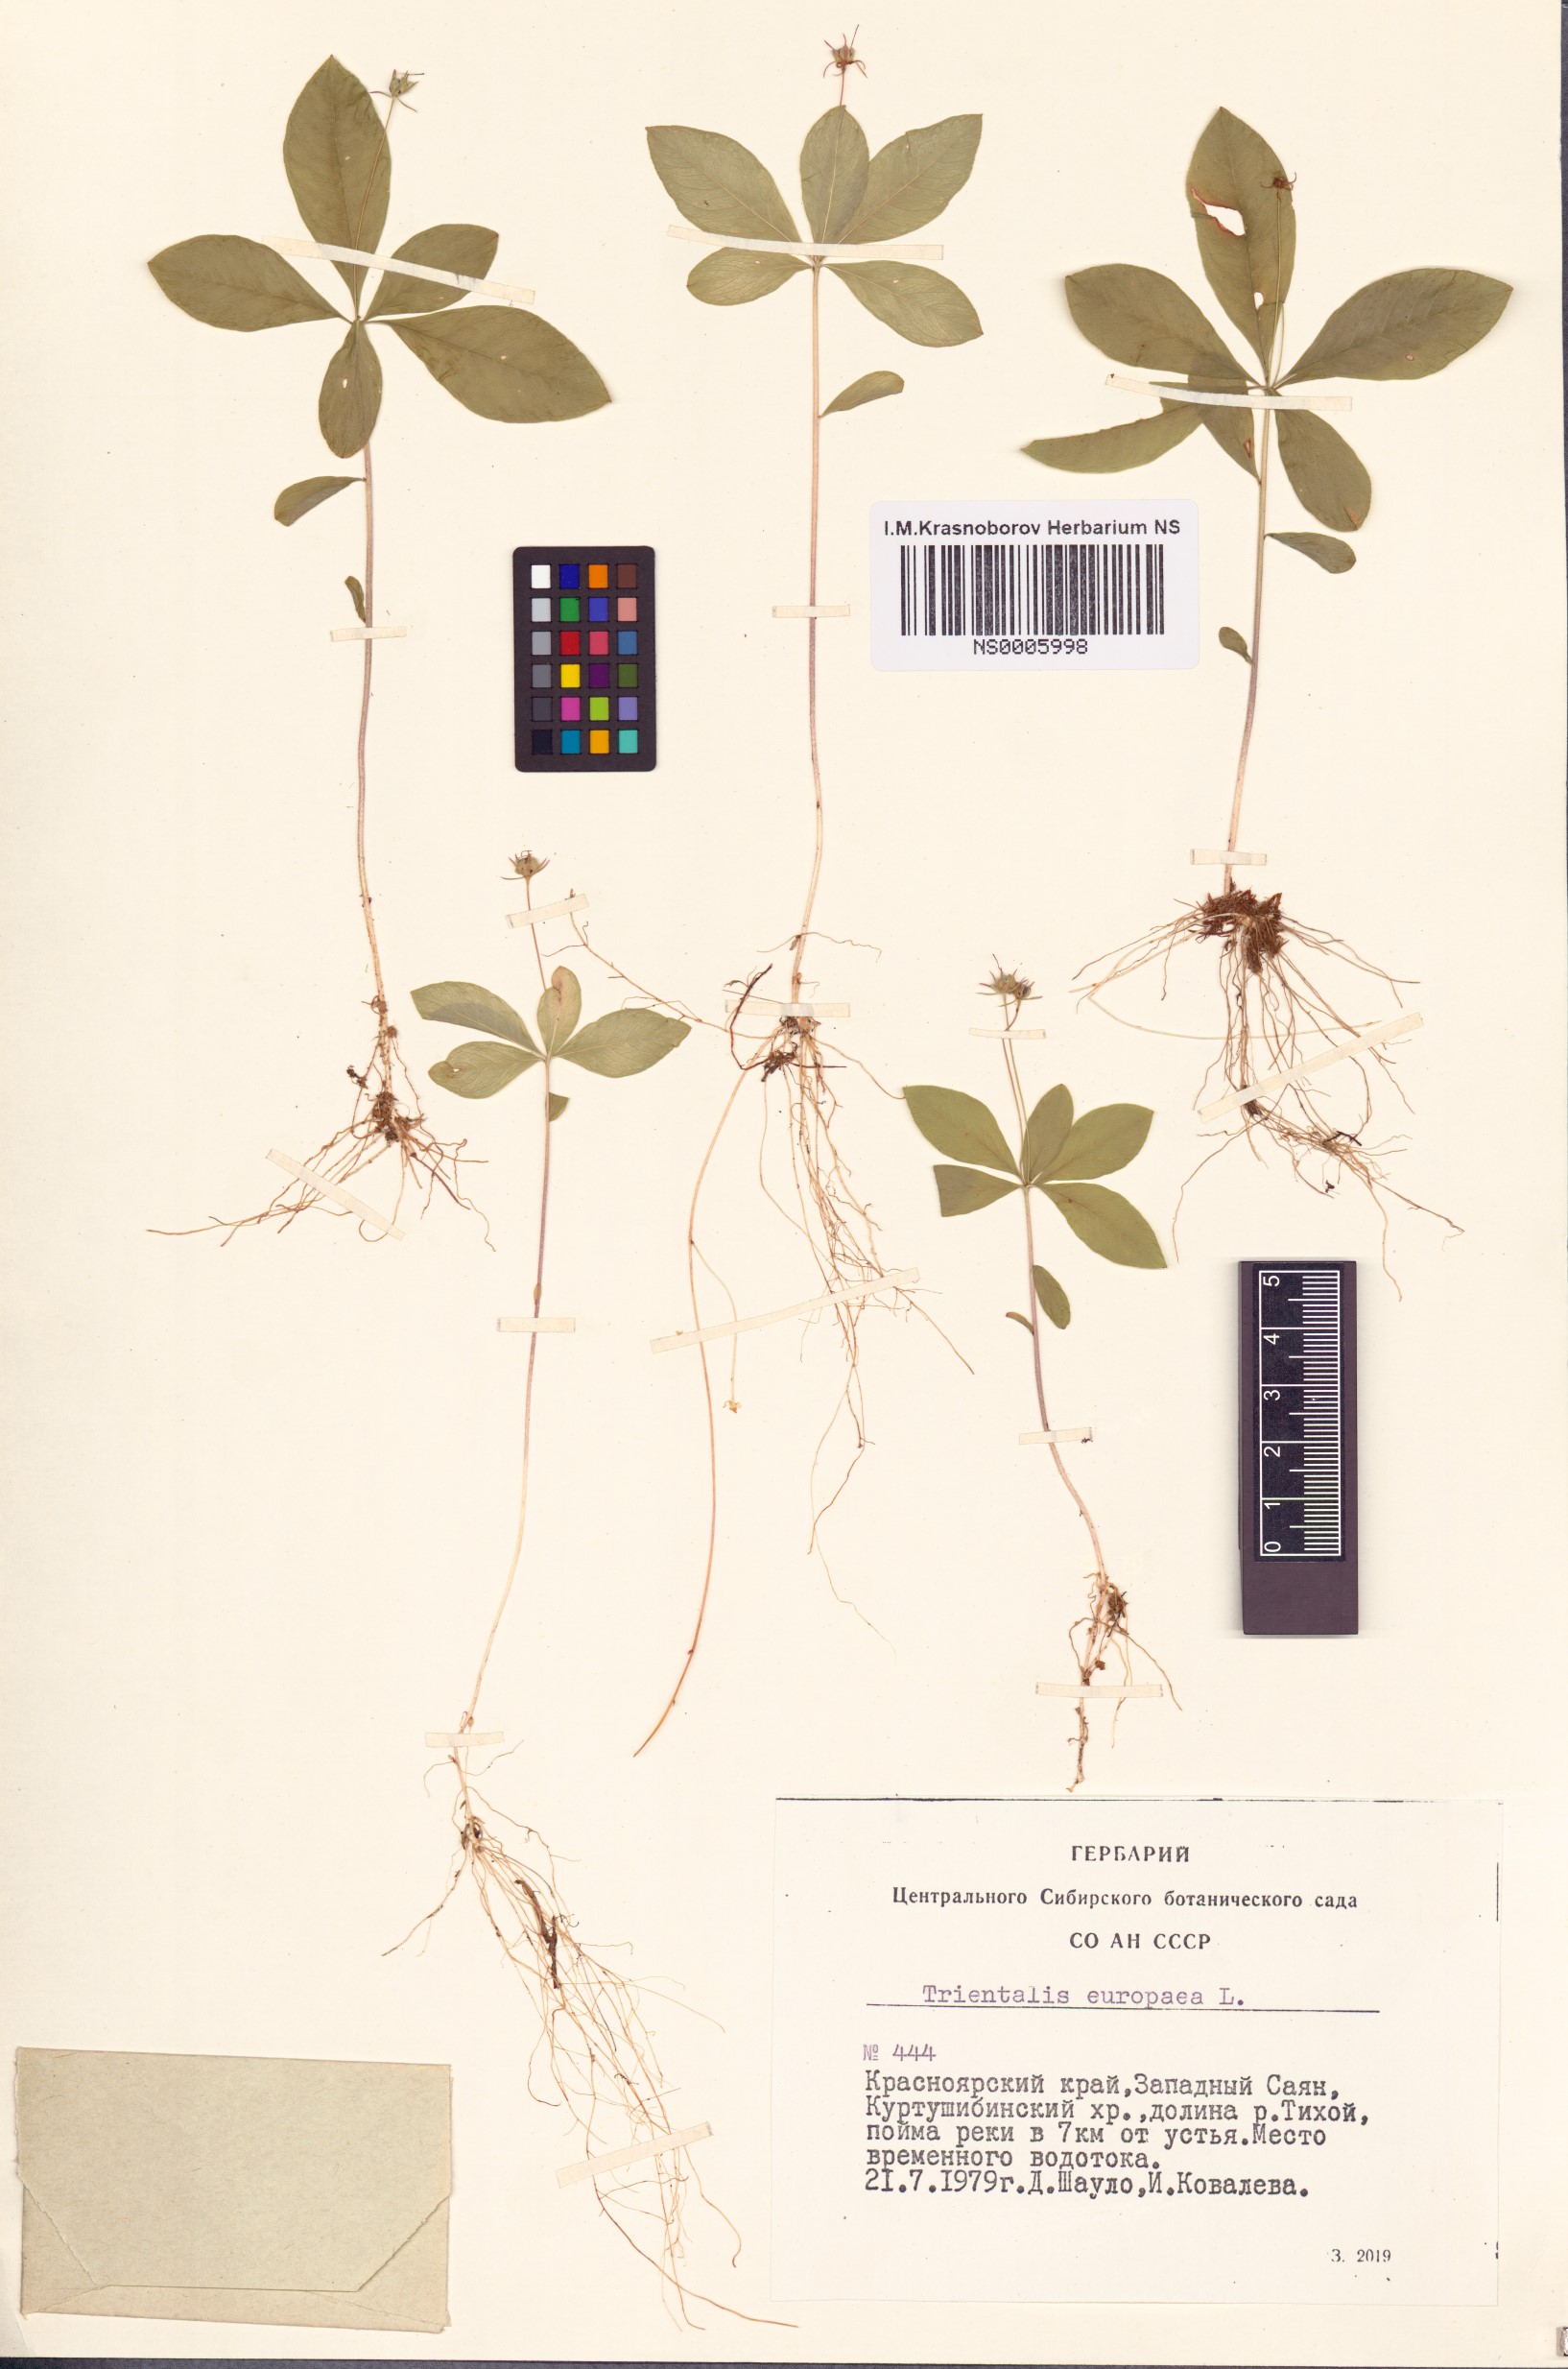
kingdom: Plantae
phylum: Tracheophyta
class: Magnoliopsida
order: Ericales
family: Primulaceae
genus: Lysimachia
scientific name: Lysimachia europaea
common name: Arctic starflower
